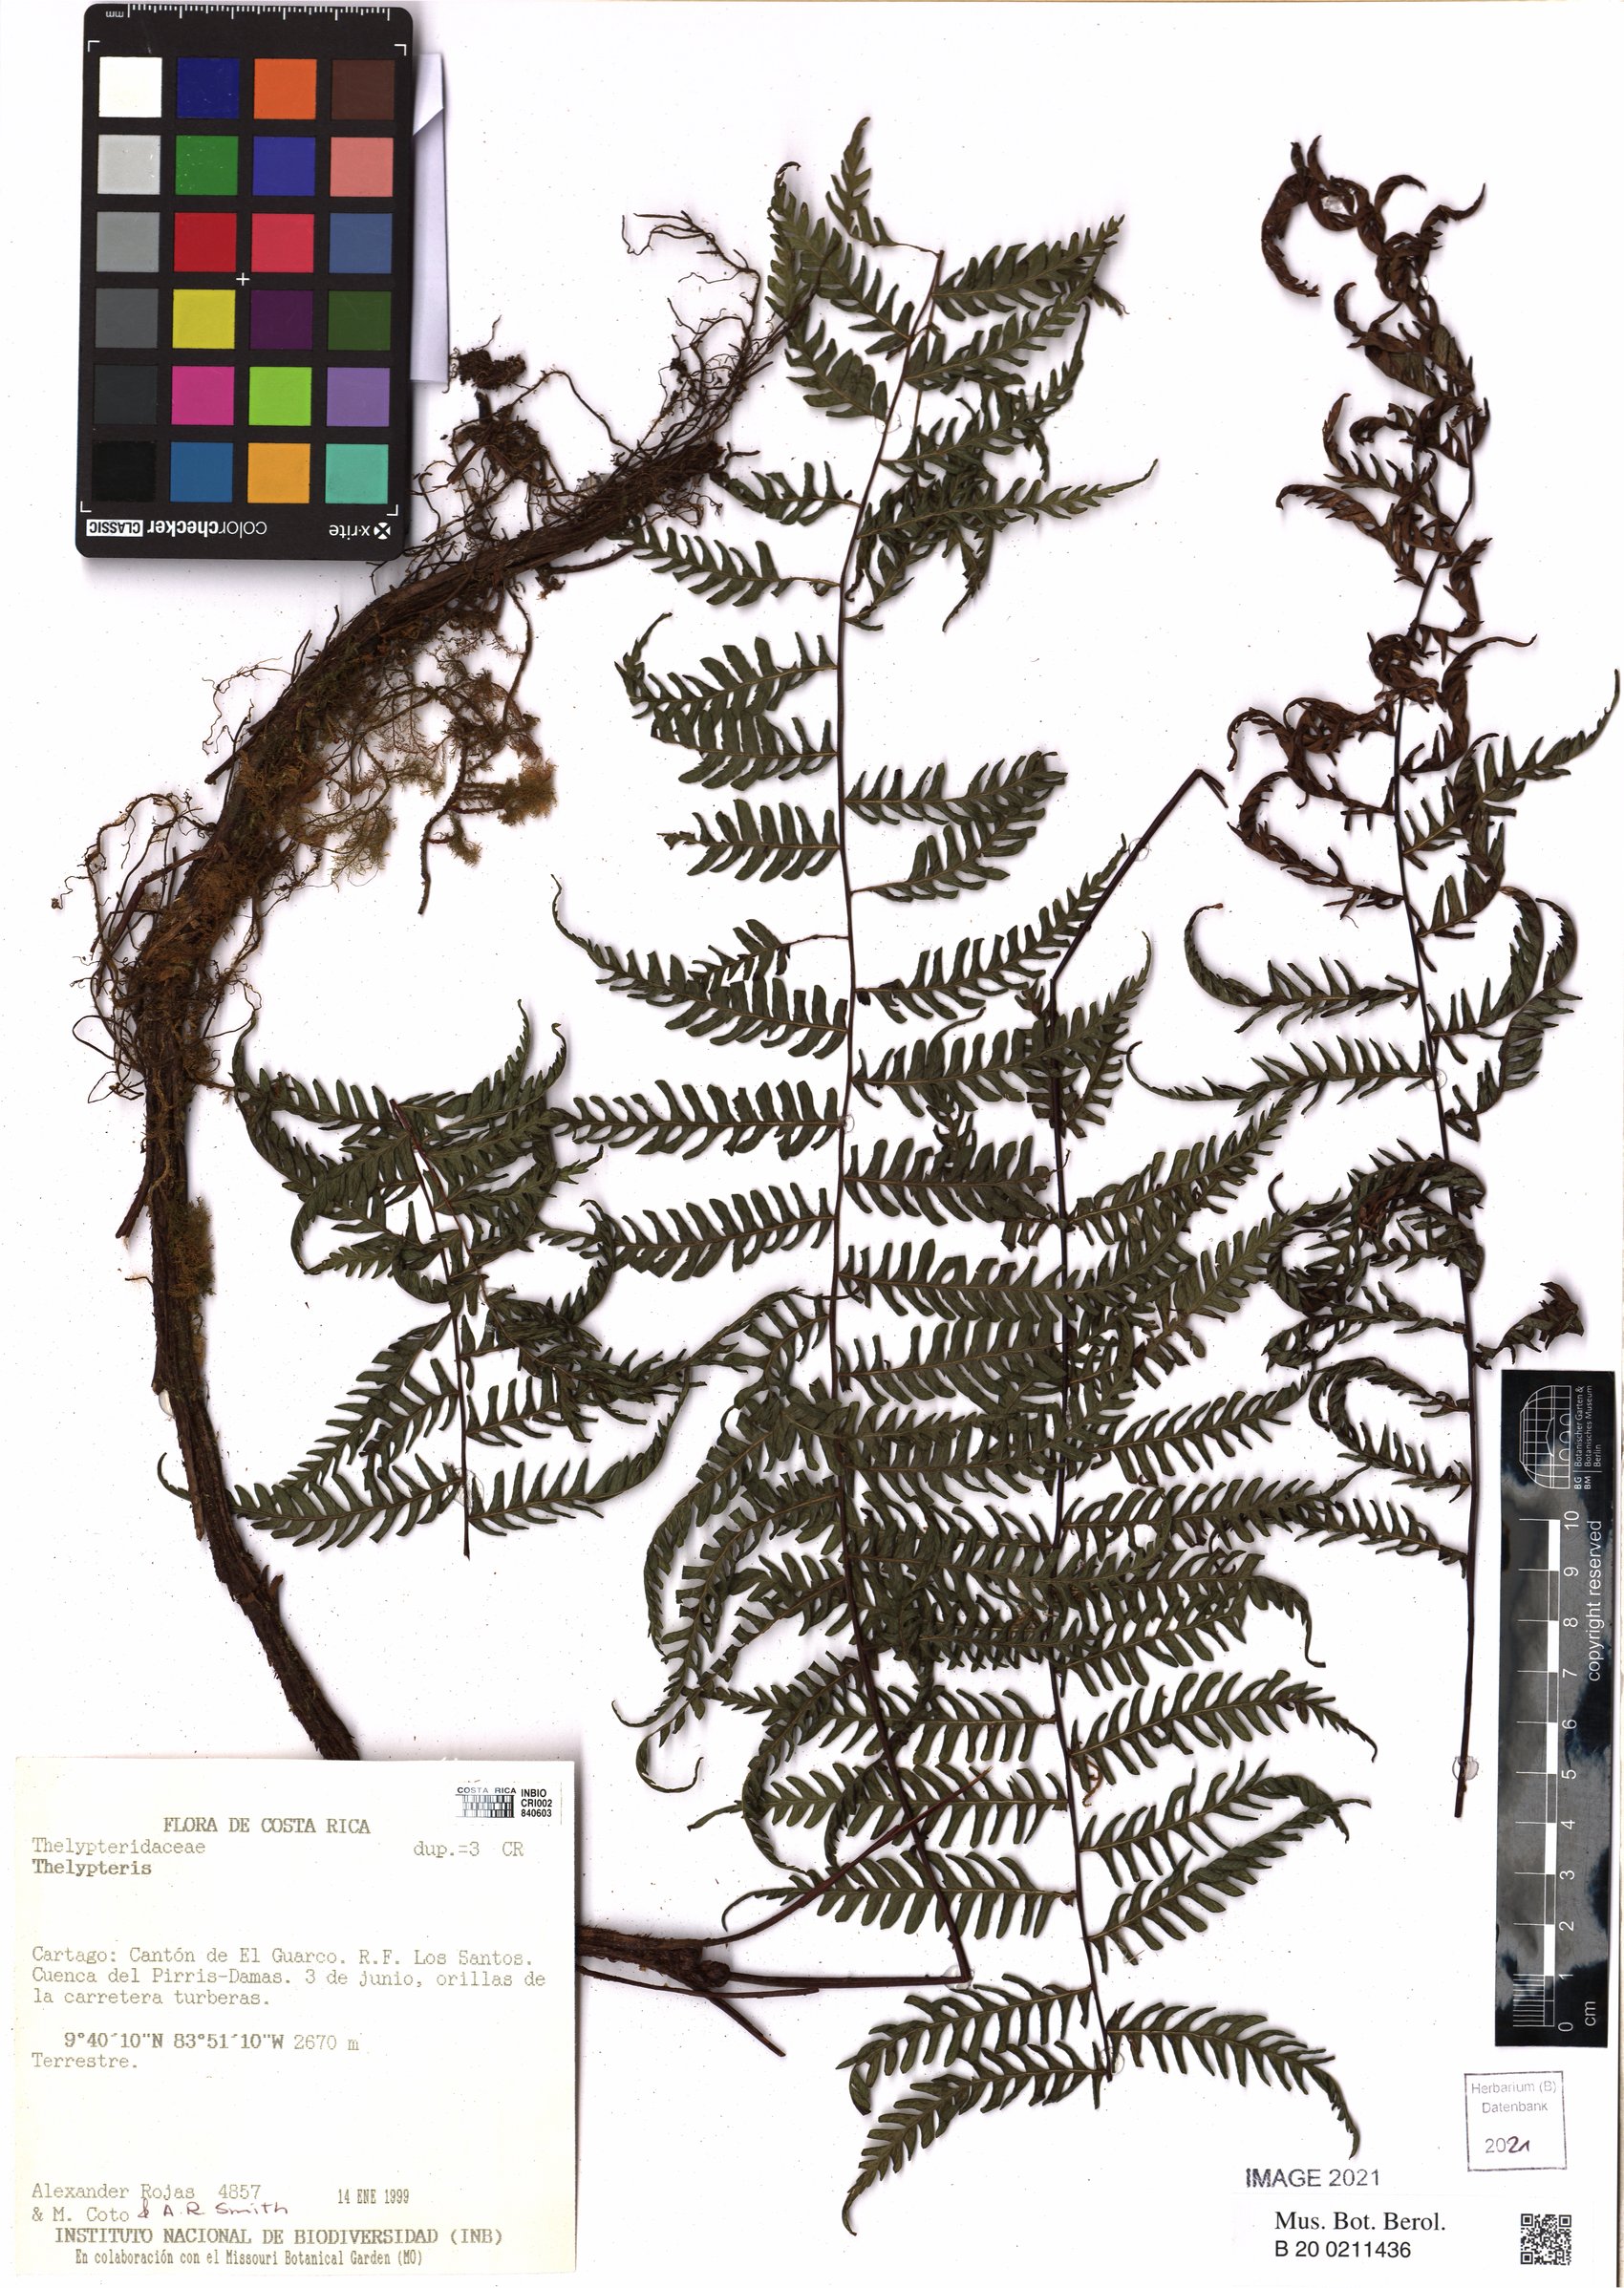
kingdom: Plantae
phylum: Tracheophyta
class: Polypodiopsida
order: Polypodiales
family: Thelypteridaceae
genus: Thelypteris
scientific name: Thelypteris
